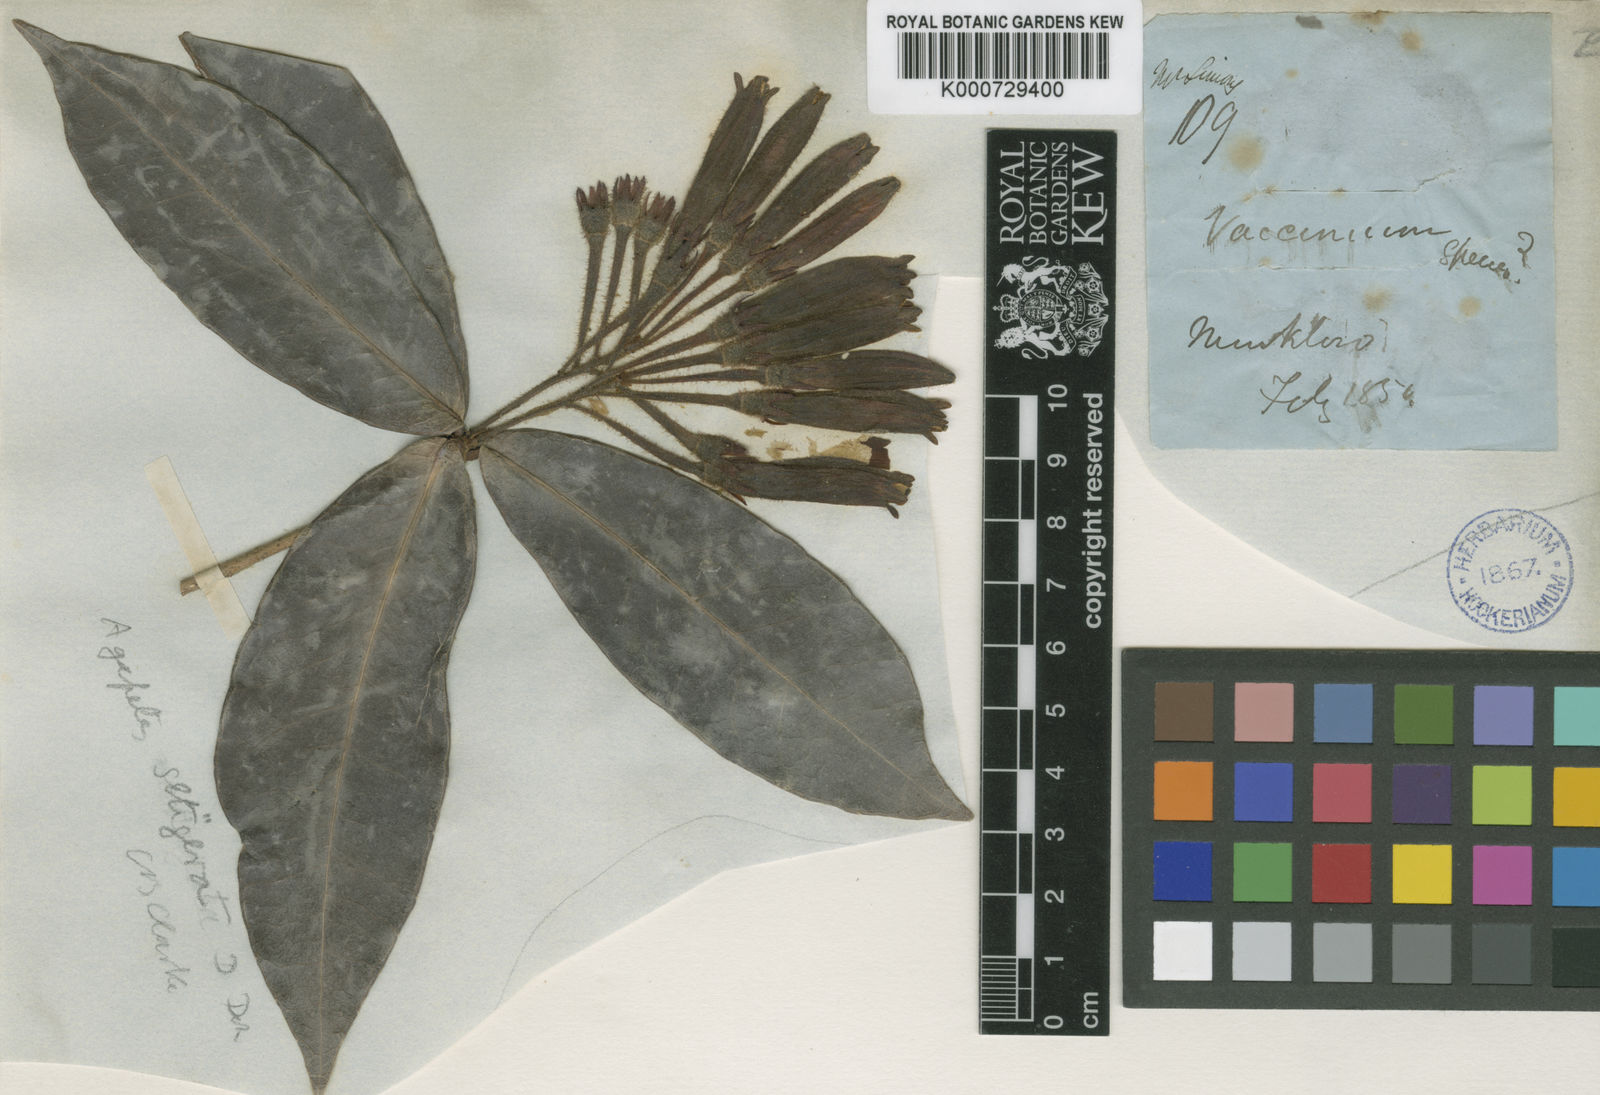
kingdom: Plantae
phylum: Tracheophyta
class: Magnoliopsida
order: Ericales
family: Ericaceae
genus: Agapetes
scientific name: Agapetes setigera
